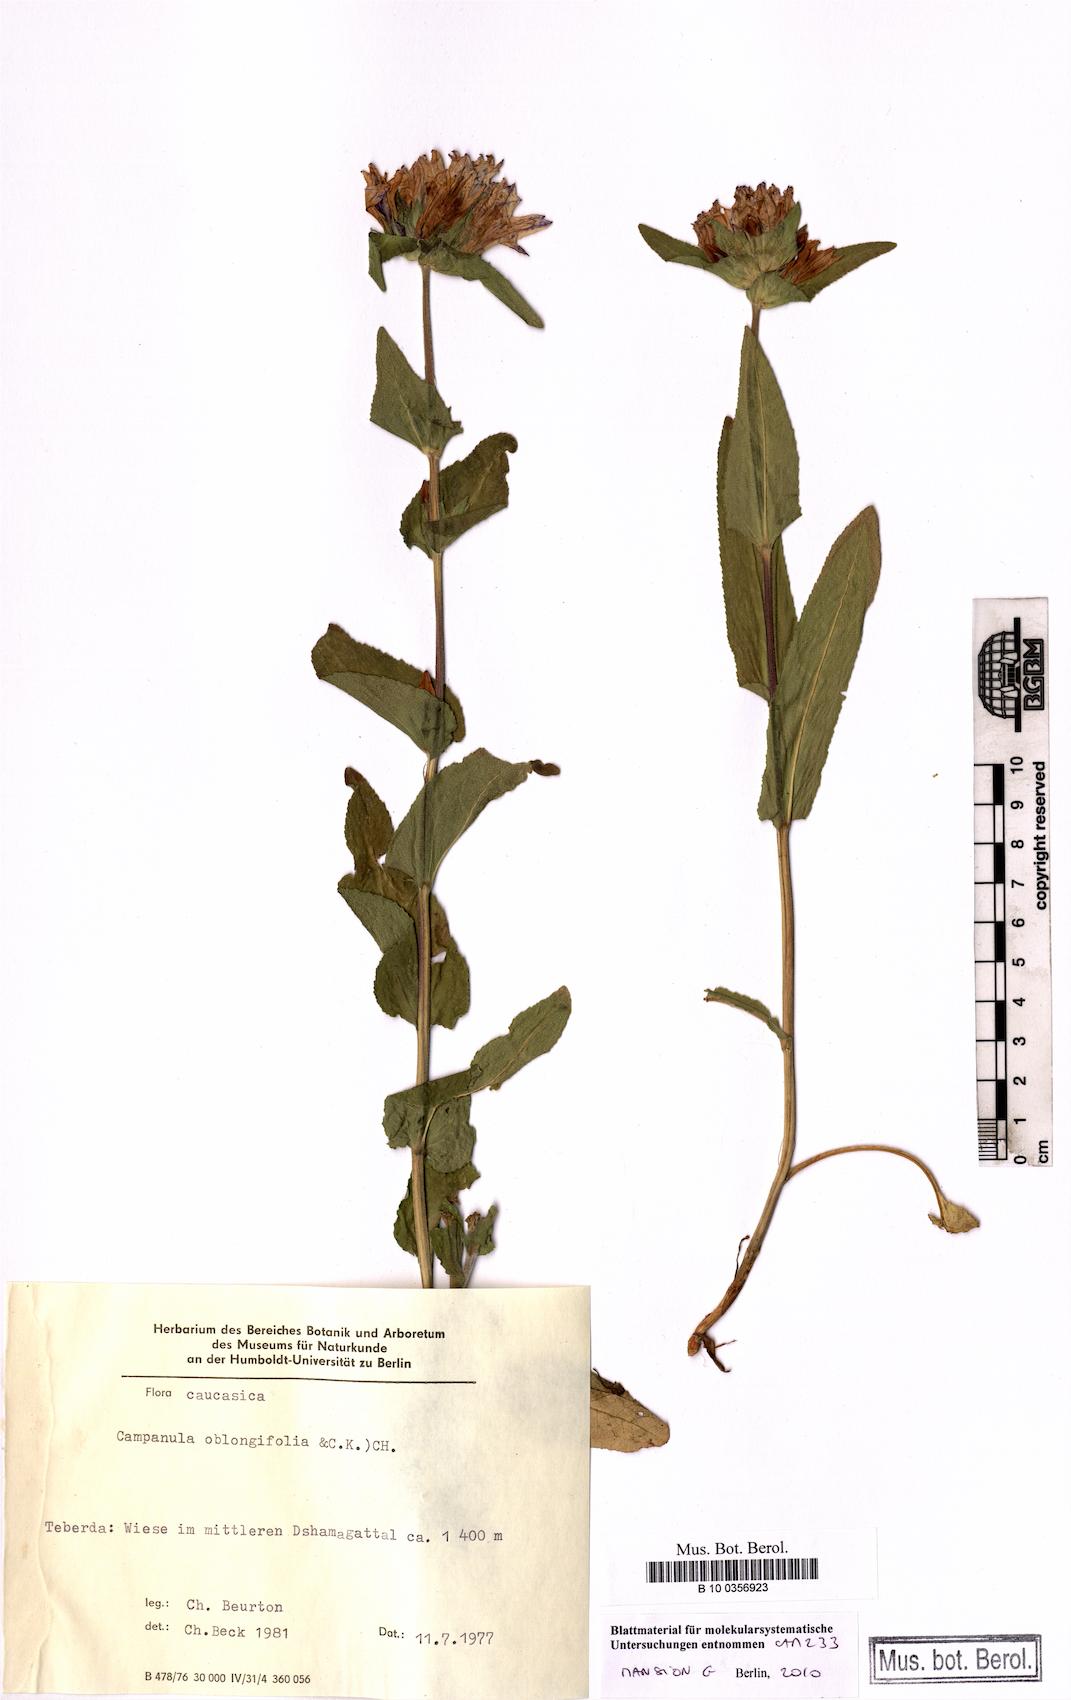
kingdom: Plantae
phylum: Tracheophyta
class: Magnoliopsida
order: Asterales
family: Campanulaceae
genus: Campanula
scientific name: Campanula glomerata
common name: Clustered bellflower
